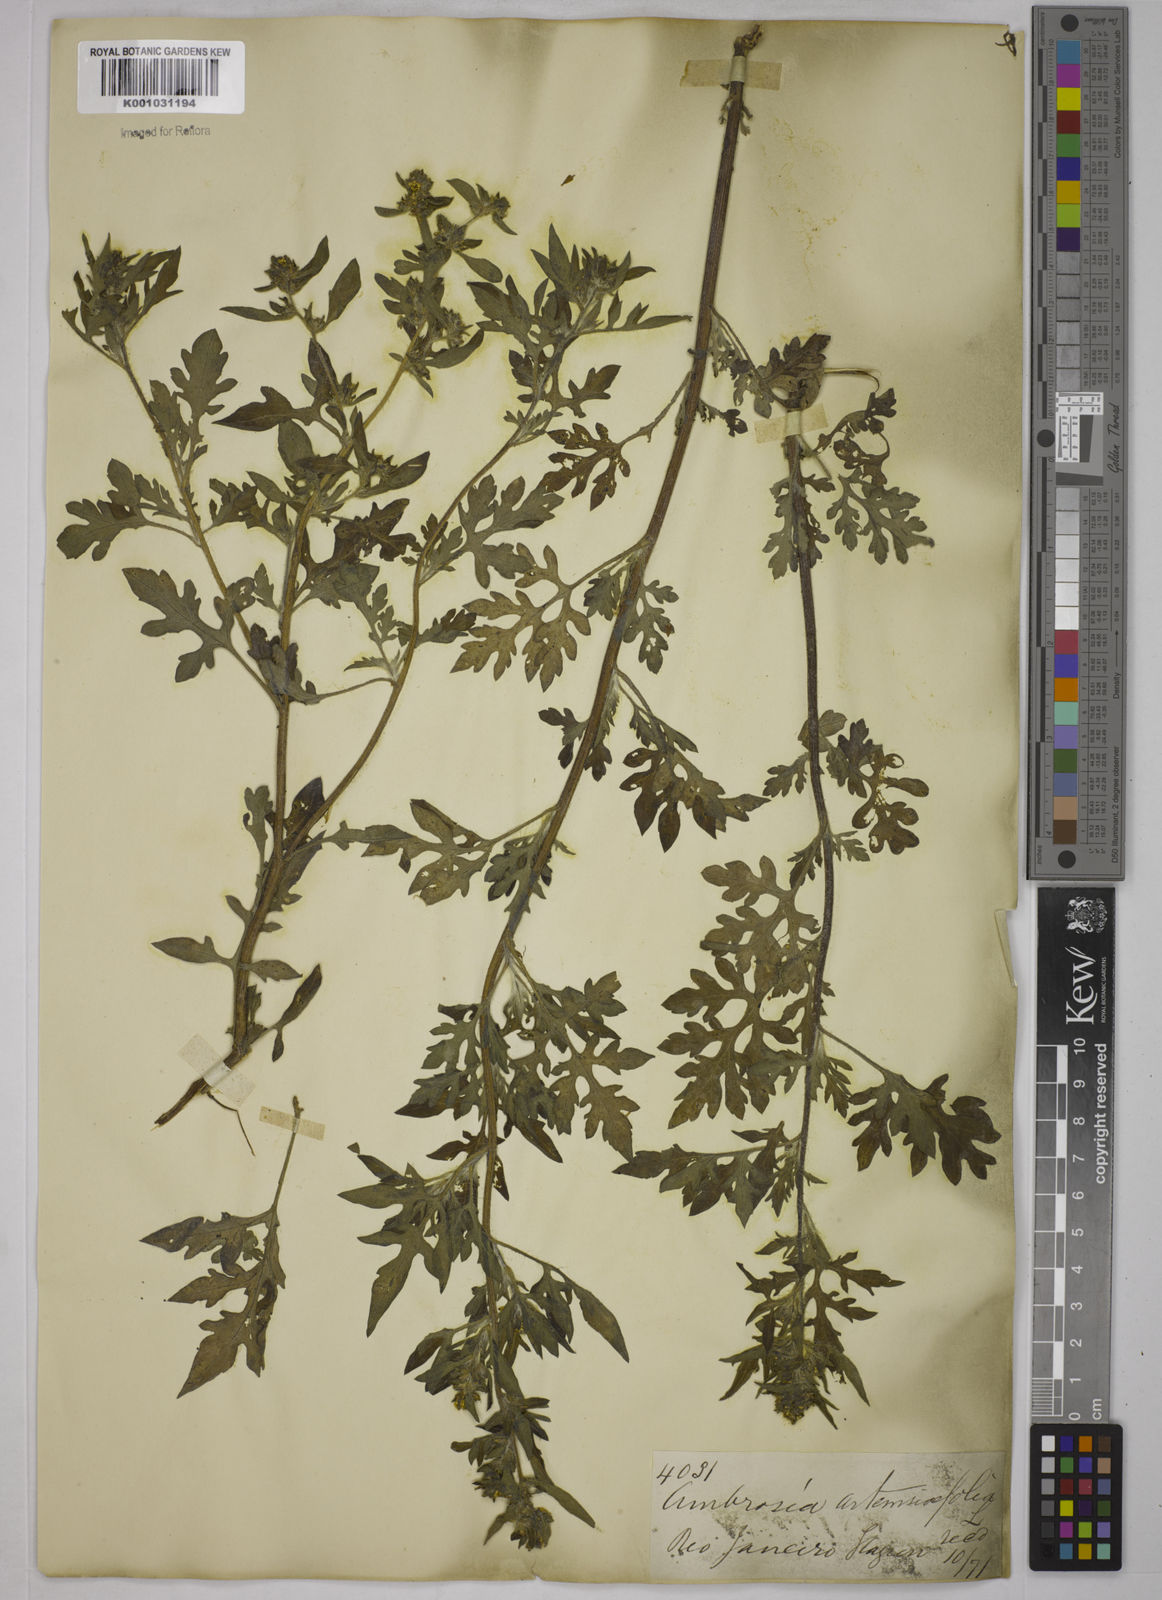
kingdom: Plantae
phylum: Tracheophyta
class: Magnoliopsida
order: Asterales
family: Asteraceae
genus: Ambrosia
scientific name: Ambrosia artemisiifolia
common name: Annual ragweed
